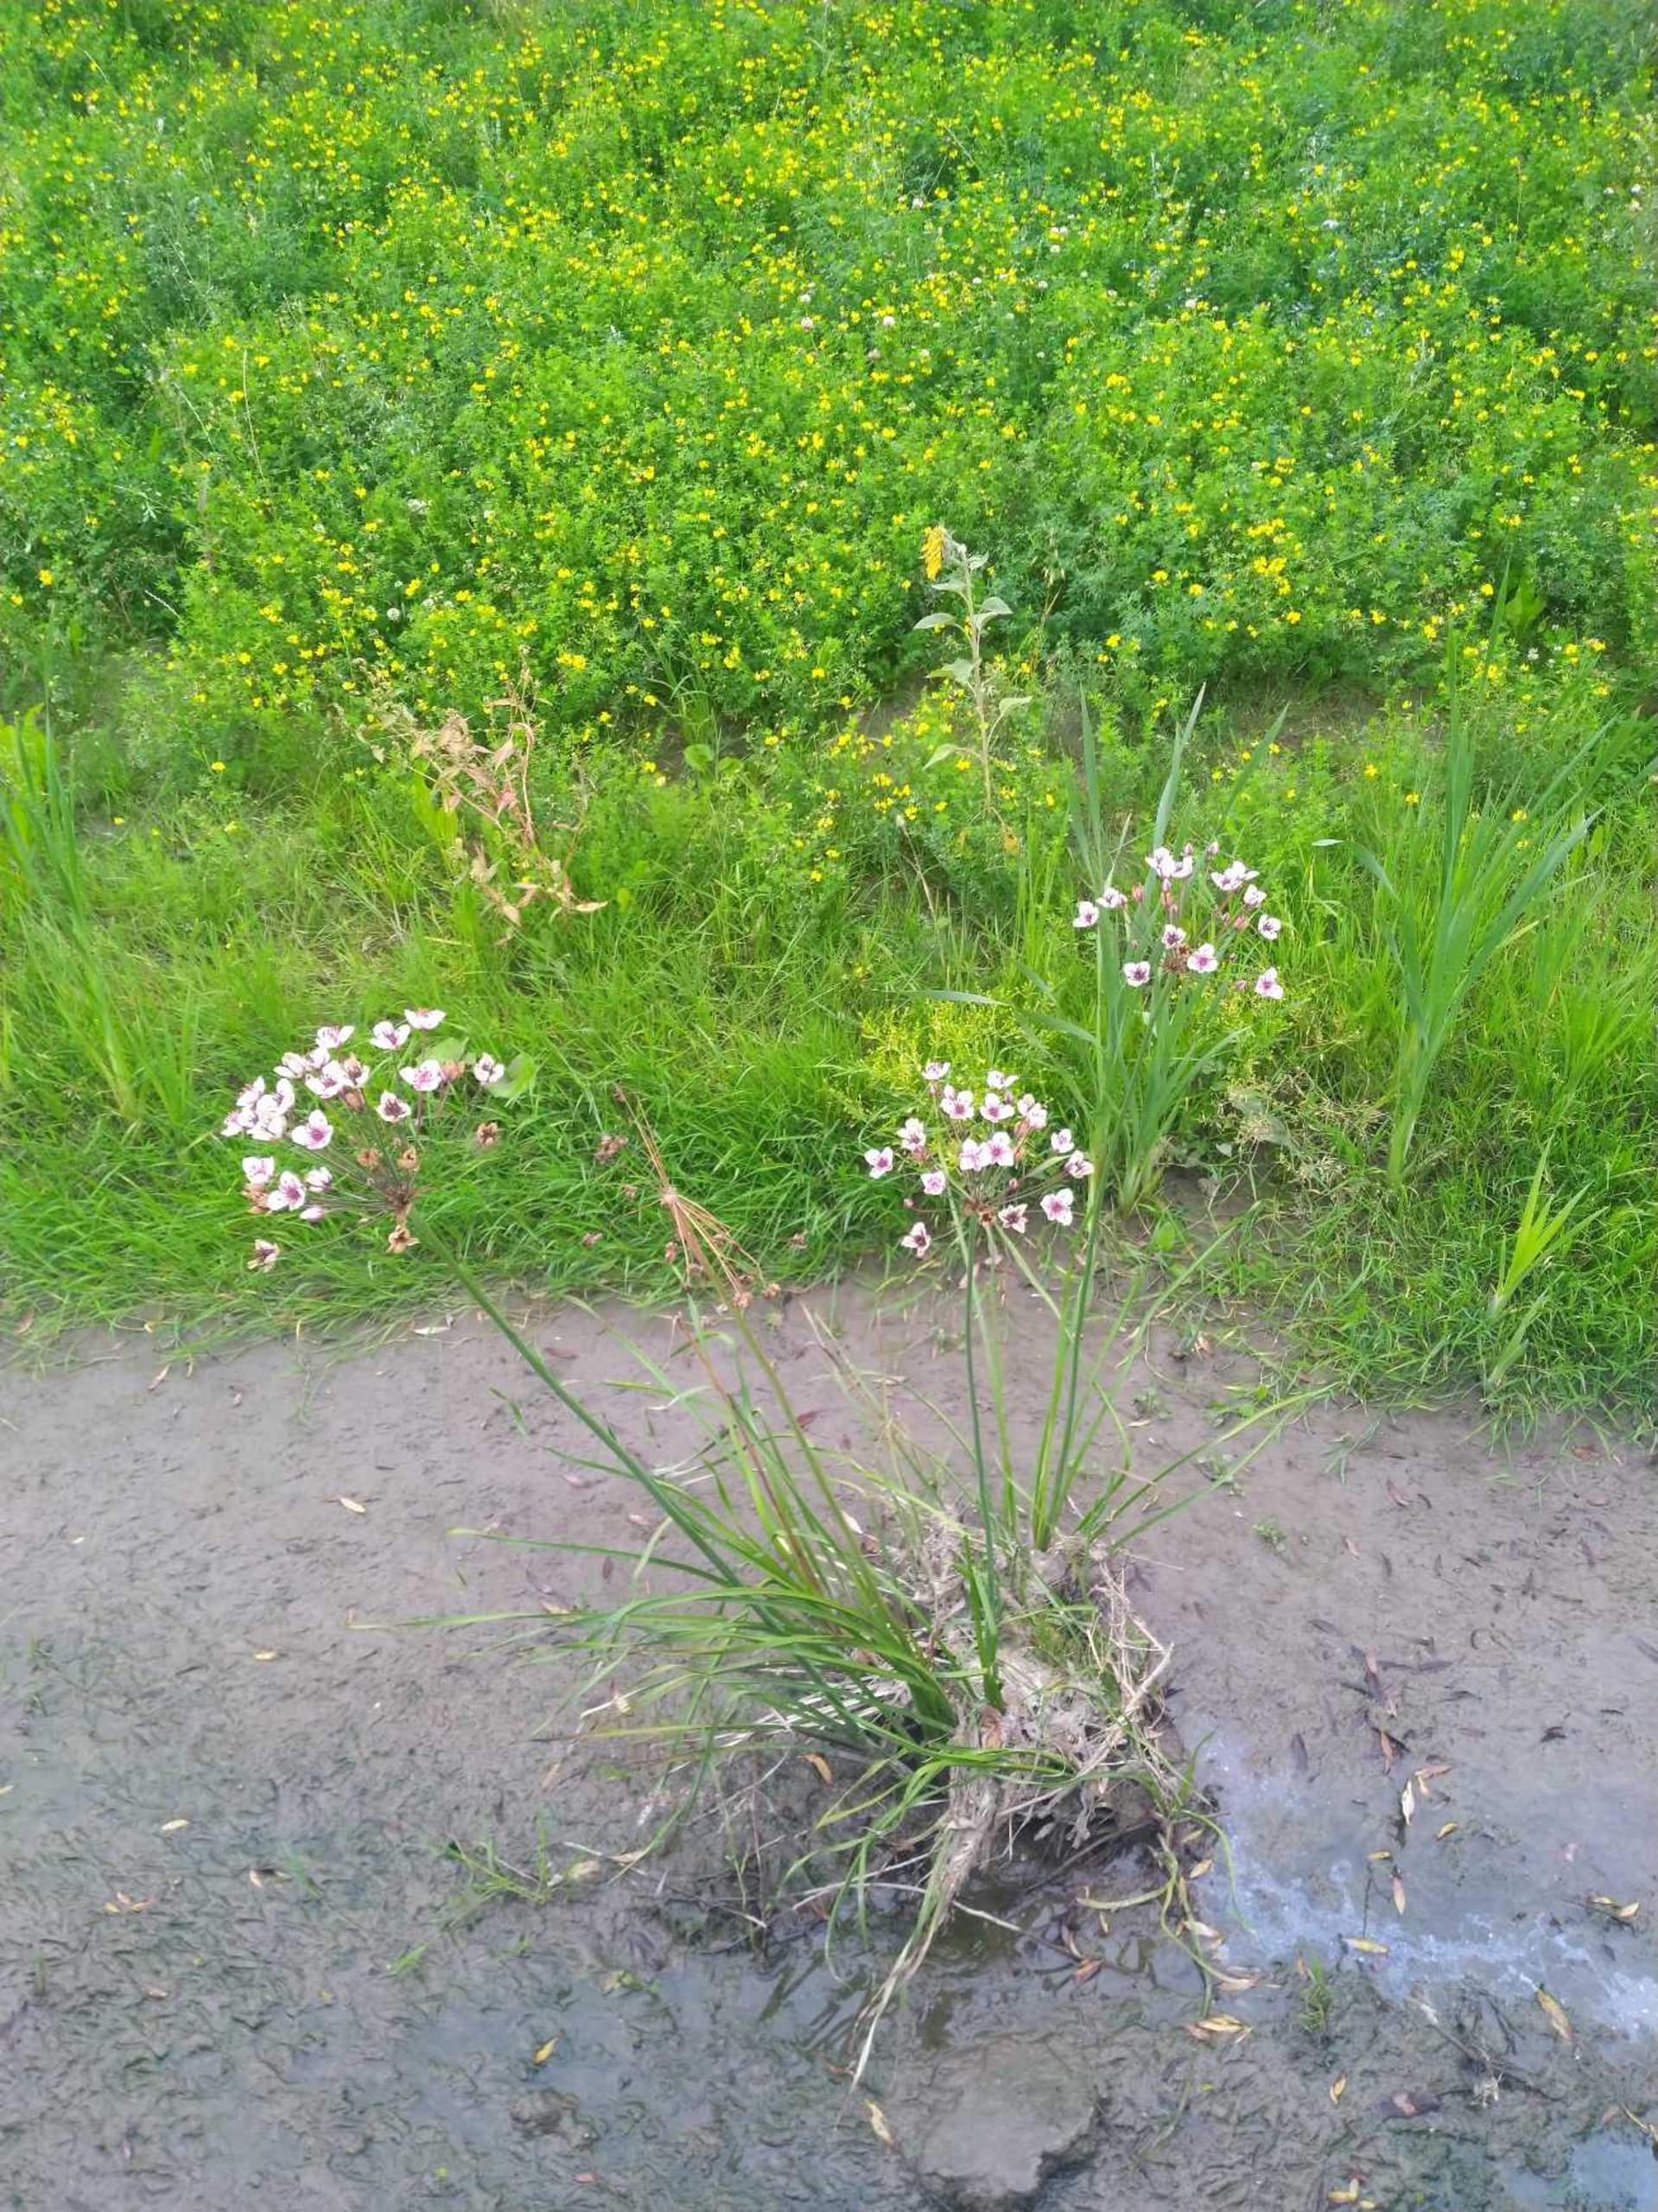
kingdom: Plantae
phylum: Tracheophyta
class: Liliopsida
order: Alismatales
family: Butomaceae
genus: Butomus
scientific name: Butomus umbellatus
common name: Brudelys
